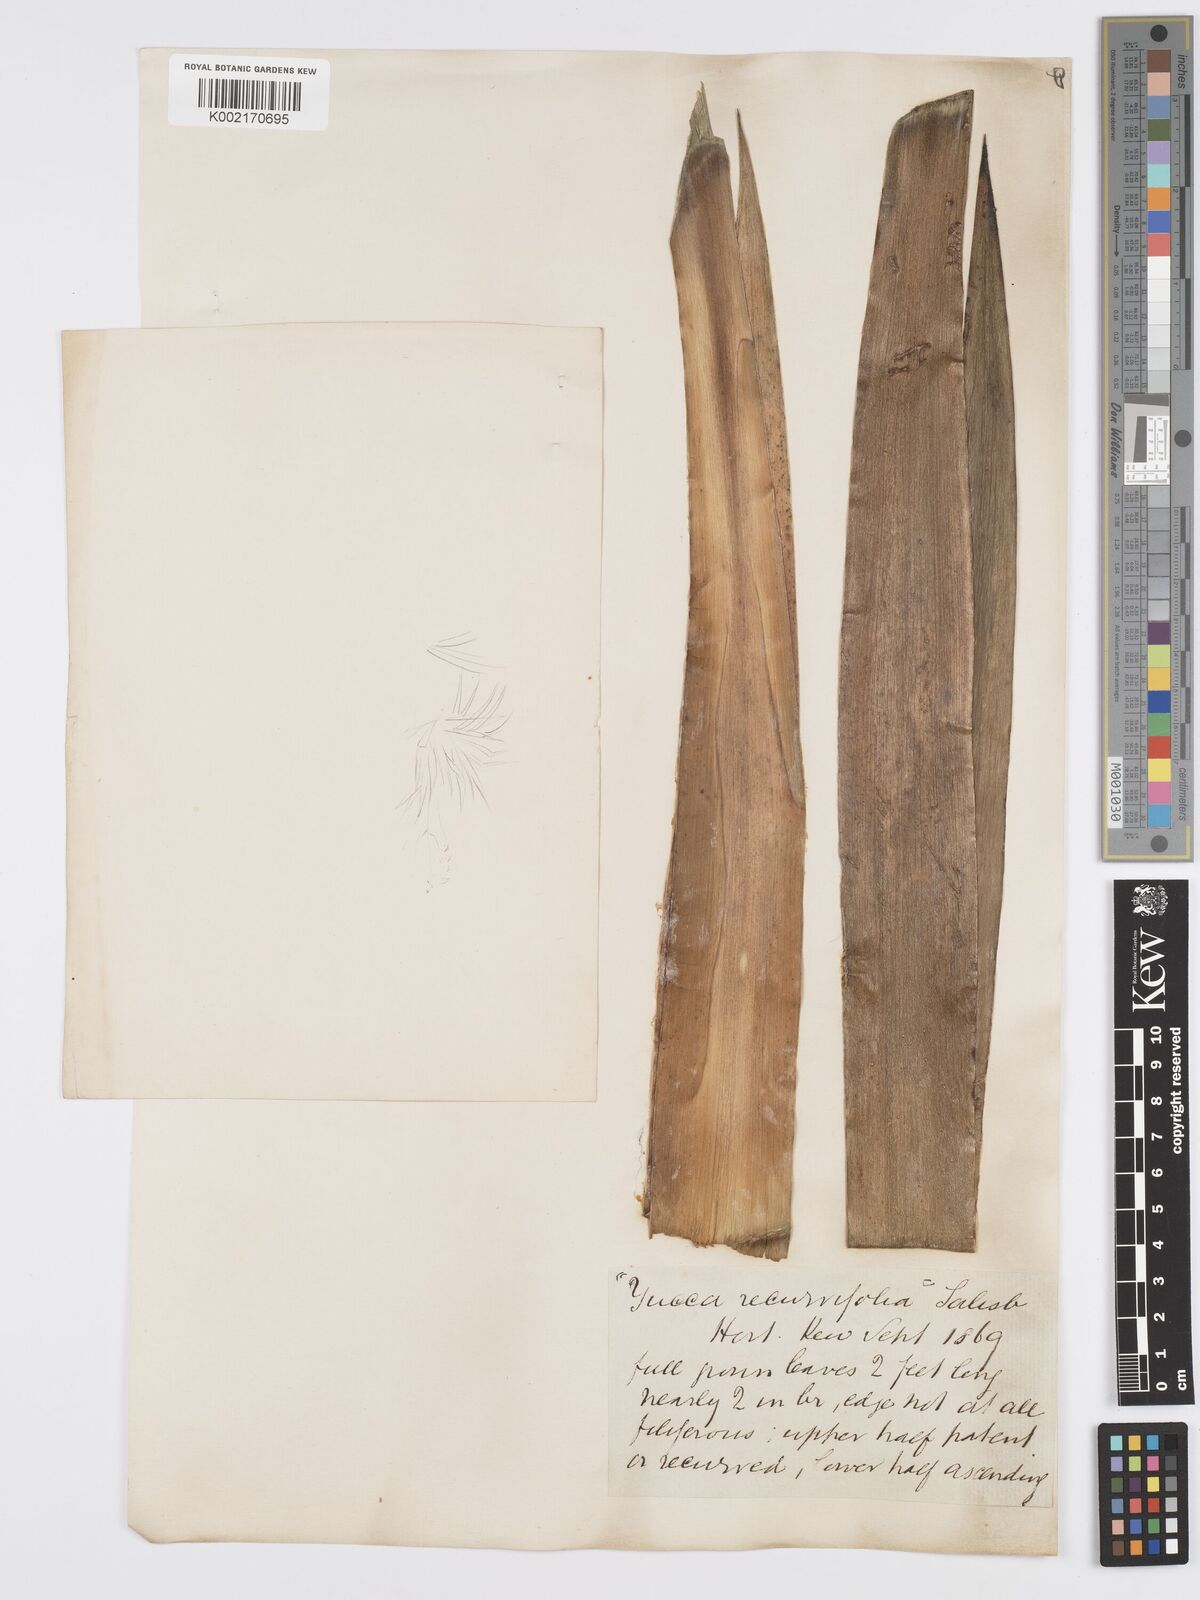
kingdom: Plantae
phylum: Tracheophyta
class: Liliopsida
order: Asparagales
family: Asparagaceae
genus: Yucca
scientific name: Yucca gloriosa
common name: Spanish-dagger
